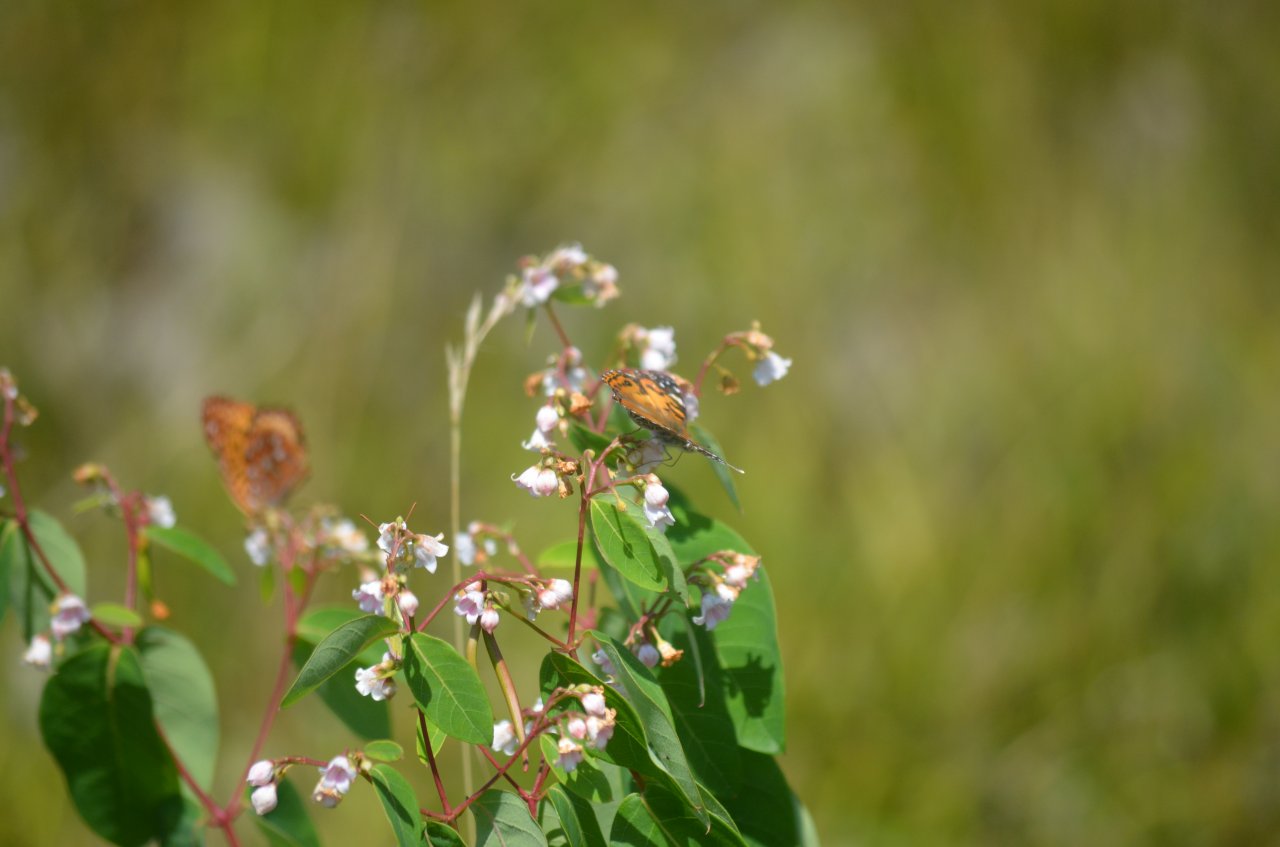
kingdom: Animalia
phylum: Arthropoda
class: Insecta
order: Lepidoptera
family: Nymphalidae
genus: Vanessa
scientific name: Vanessa virginiensis
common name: American Lady
